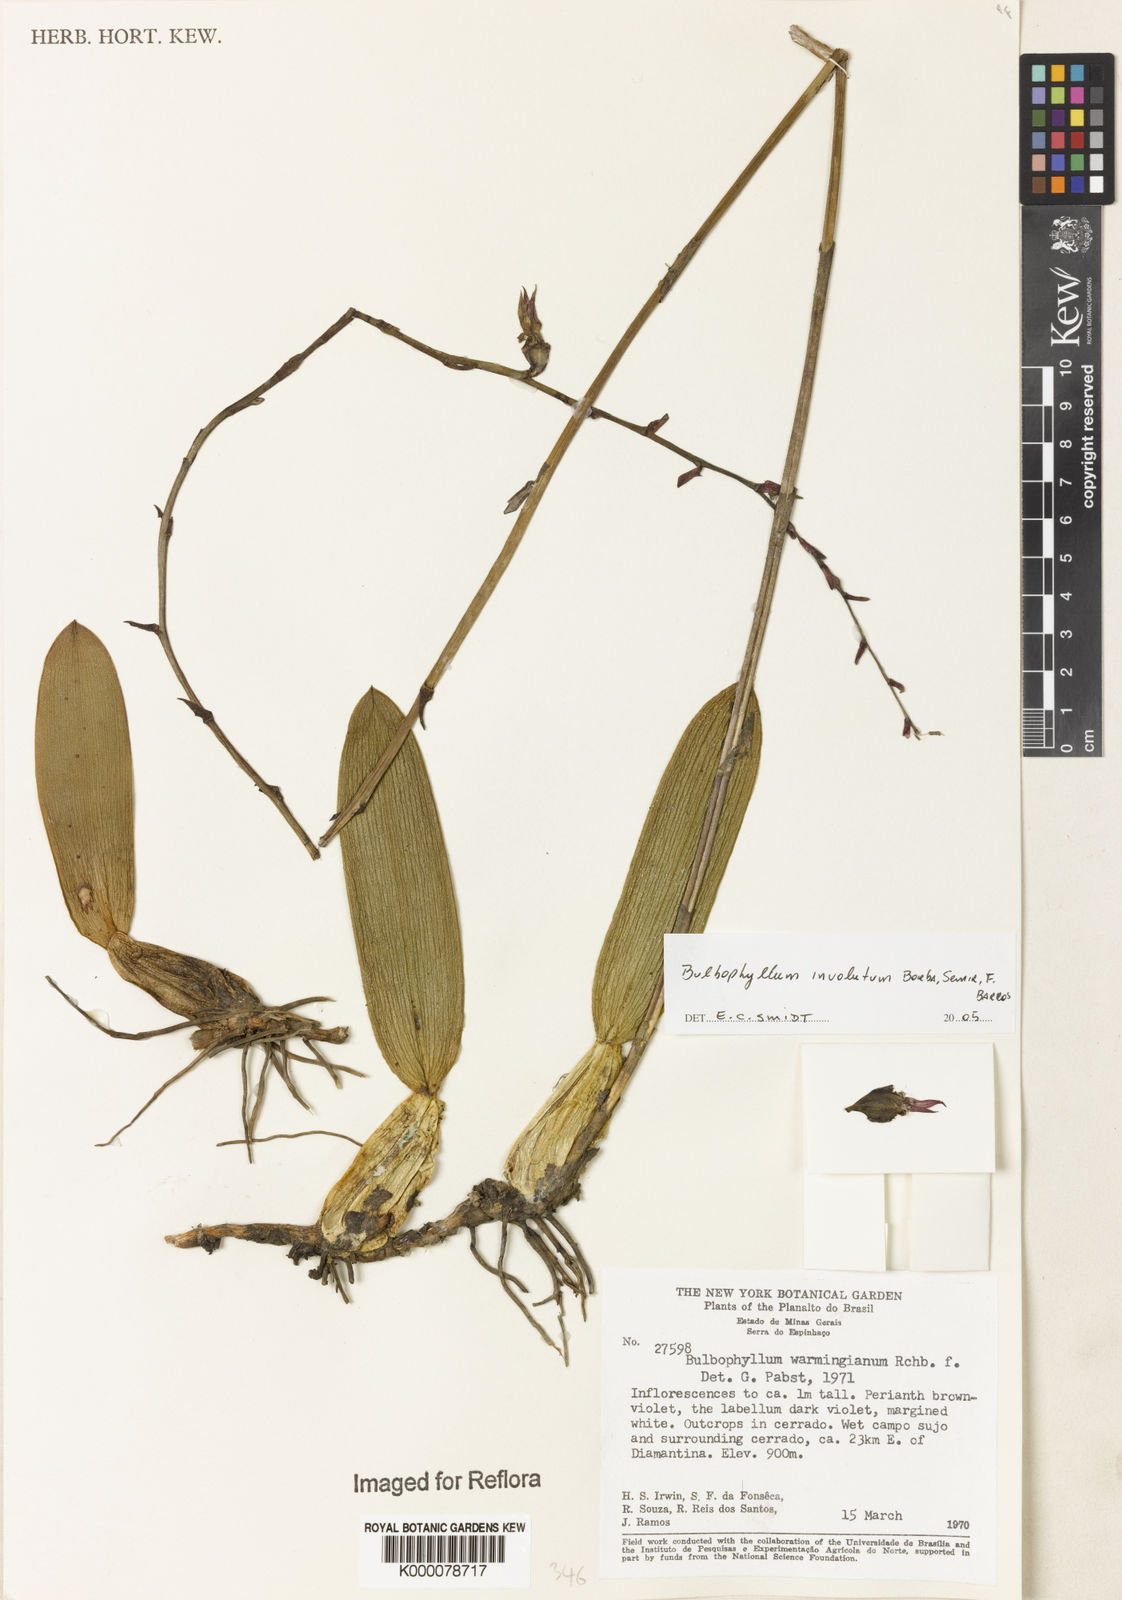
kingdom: Plantae
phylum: Tracheophyta
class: Liliopsida
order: Asparagales
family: Orchidaceae
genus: Bulbophyllum
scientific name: Bulbophyllum
